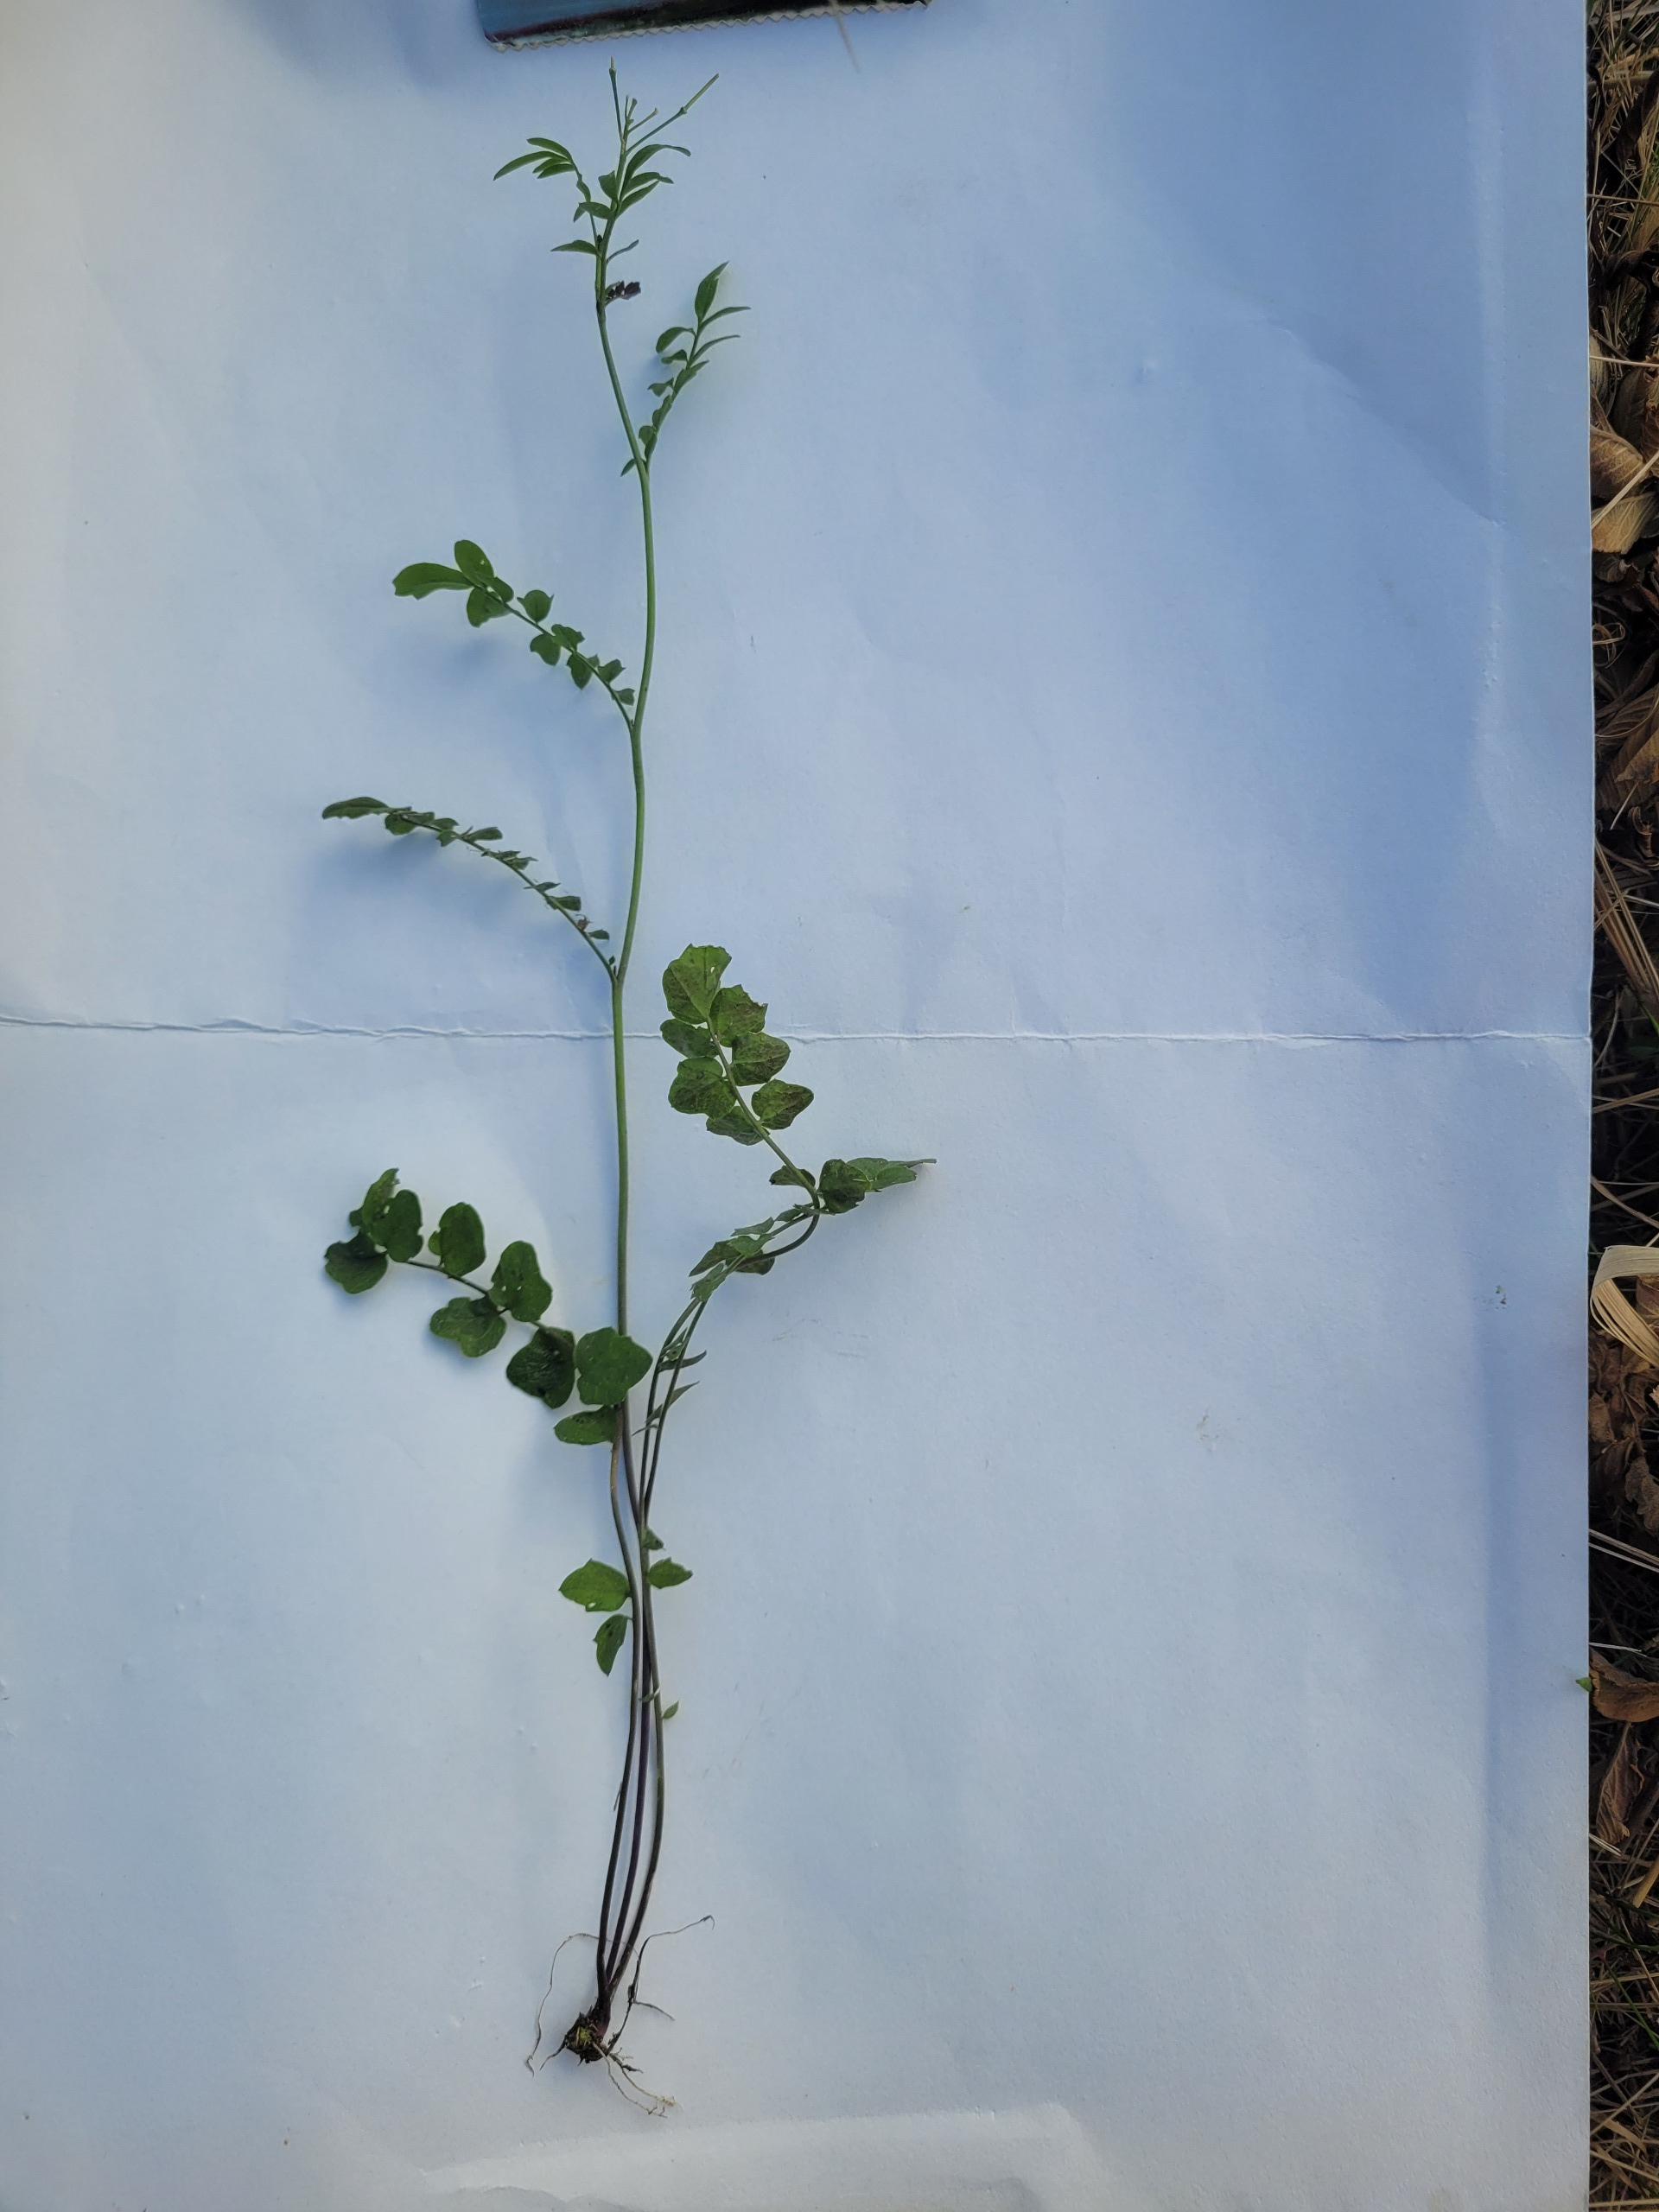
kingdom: Plantae
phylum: Tracheophyta
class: Magnoliopsida
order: Brassicales
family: Brassicaceae
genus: Cardamine
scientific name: Cardamine pratensis
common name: Engkarse
